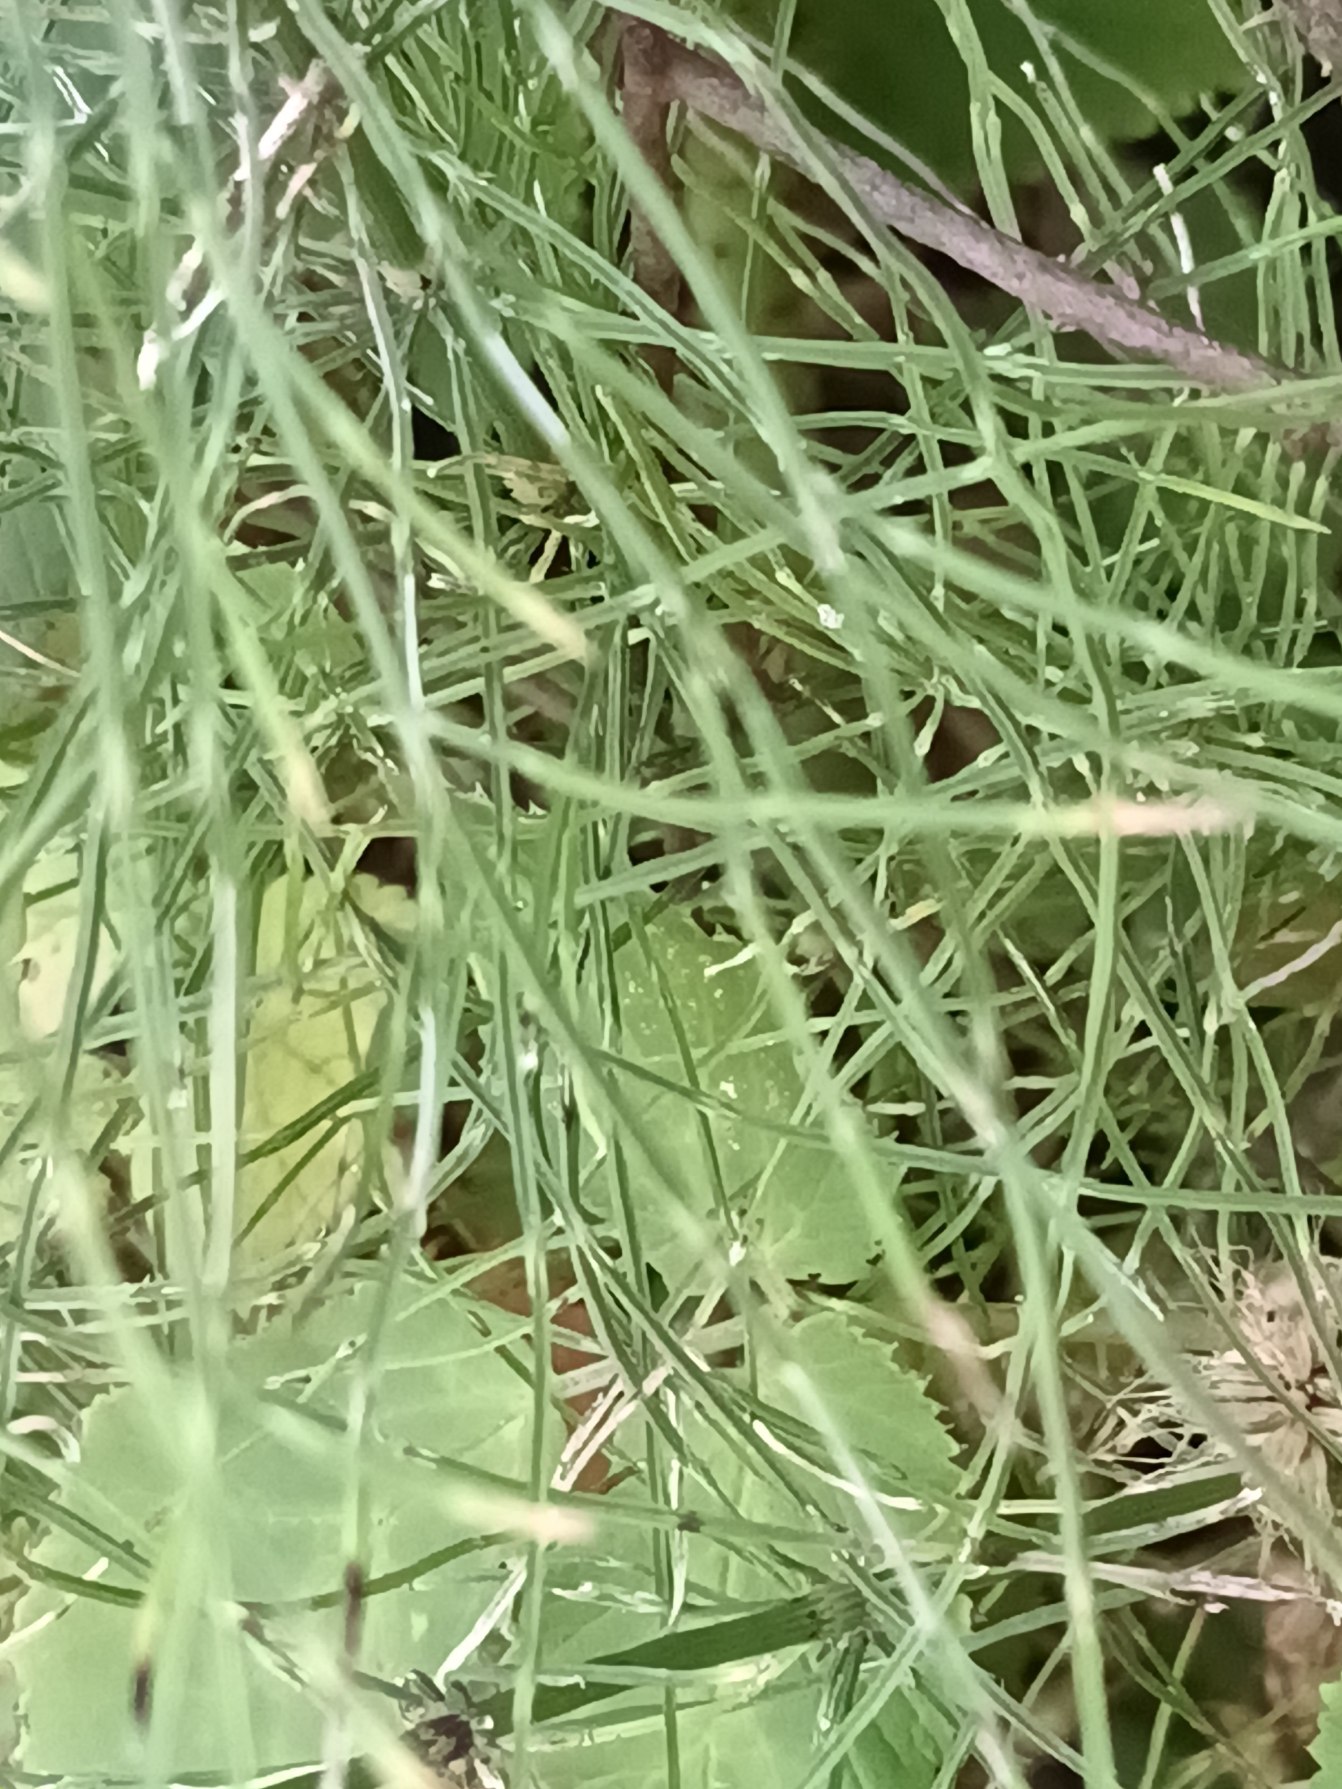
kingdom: Plantae
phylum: Tracheophyta
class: Polypodiopsida
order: Equisetales
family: Equisetaceae
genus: Equisetum
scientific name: Equisetum pratense
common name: Lund-padderok
